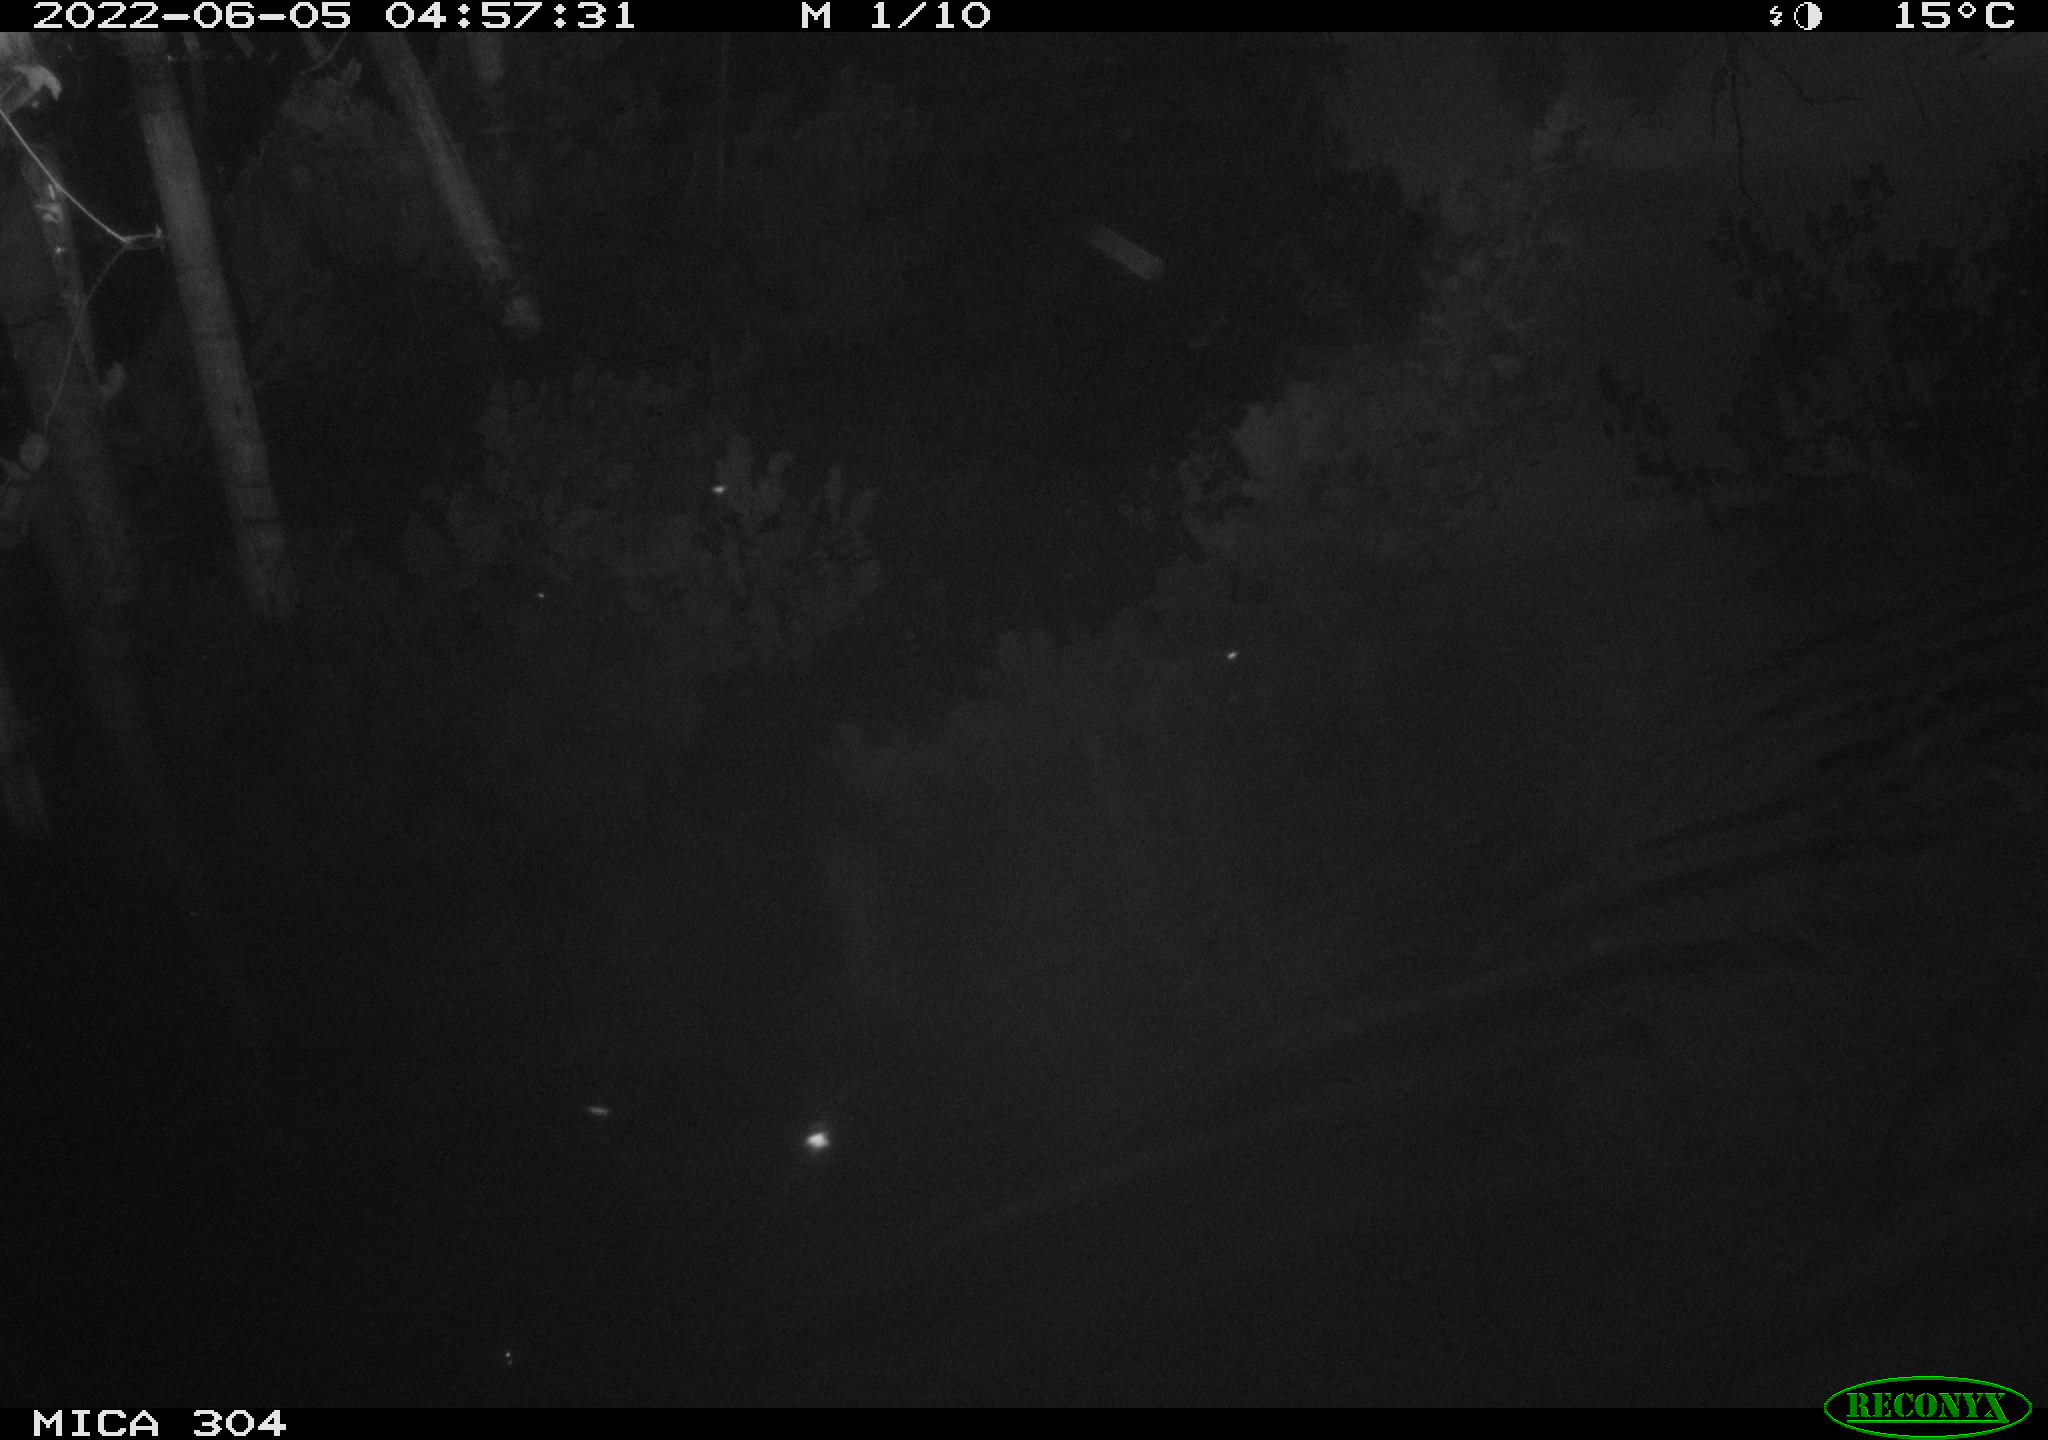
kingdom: Animalia
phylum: Chordata
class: Aves
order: Anseriformes
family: Anatidae
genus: Anas
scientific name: Anas platyrhynchos
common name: Mallard
